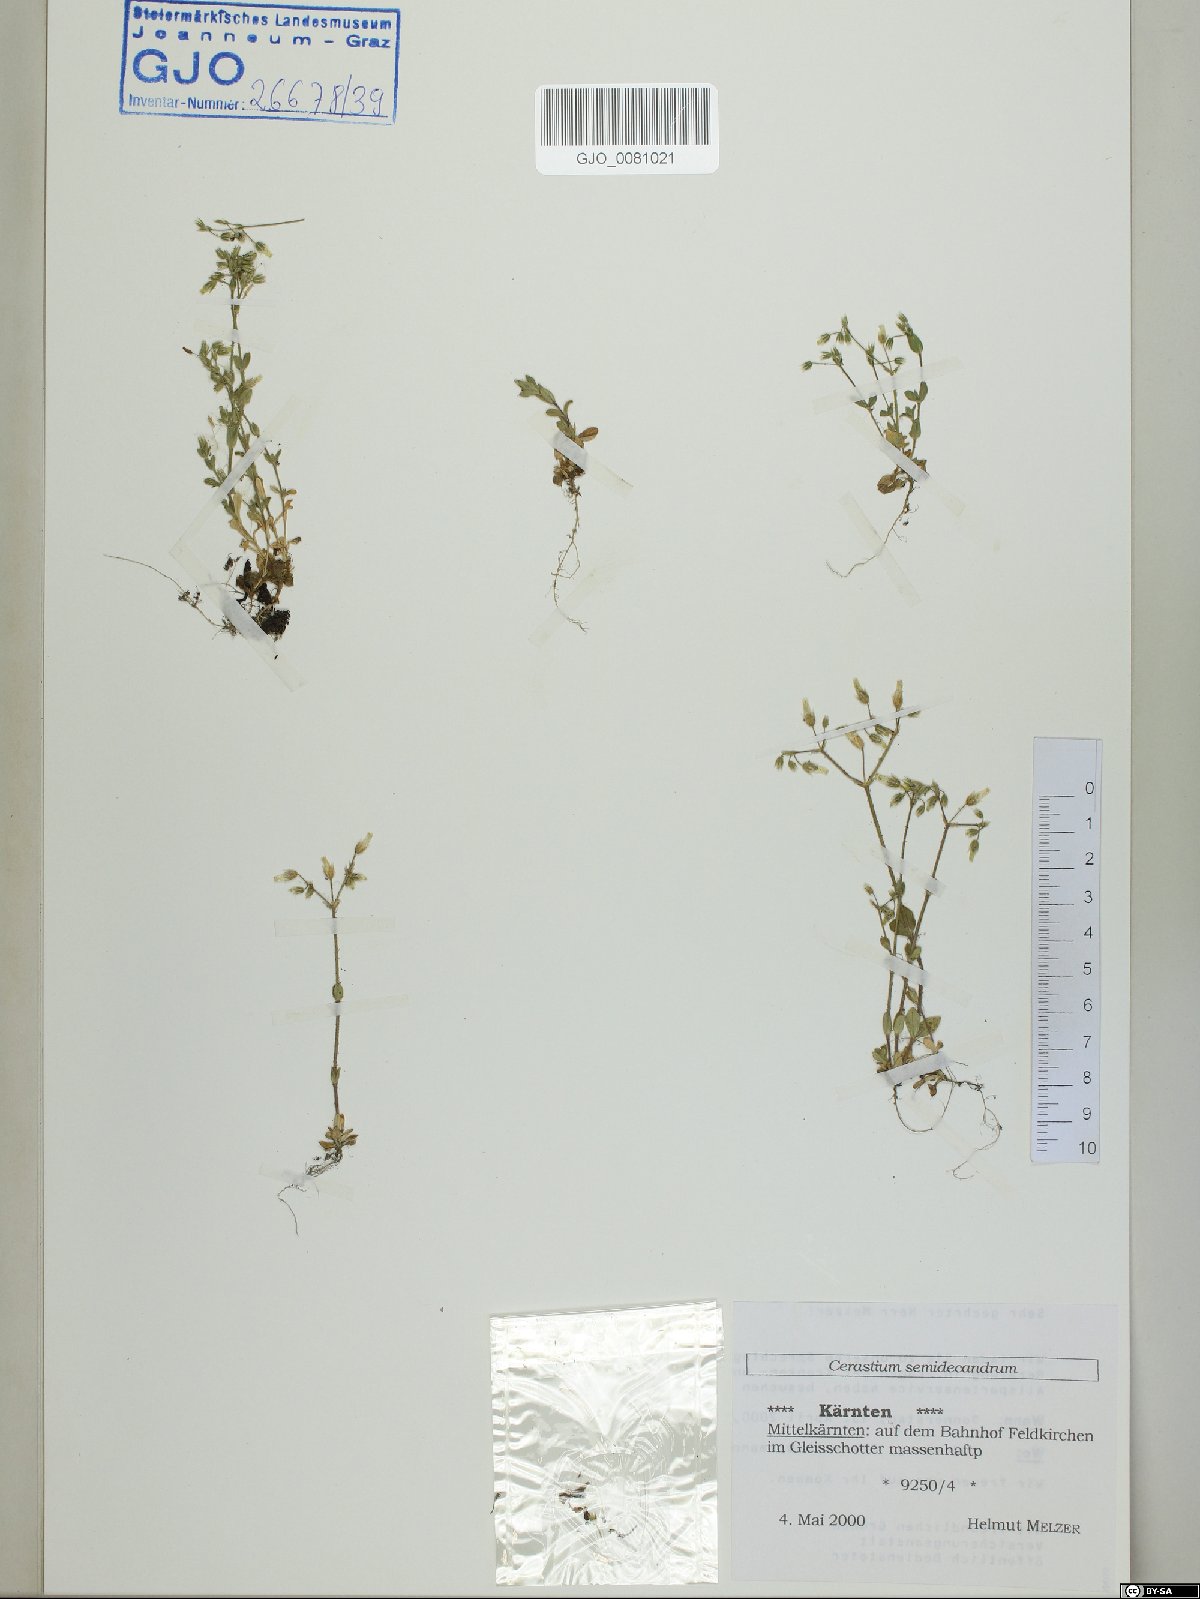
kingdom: Plantae
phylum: Tracheophyta
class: Magnoliopsida
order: Caryophyllales
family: Caryophyllaceae
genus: Cerastium
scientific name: Cerastium semidecandrum
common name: Little mouse-ear
